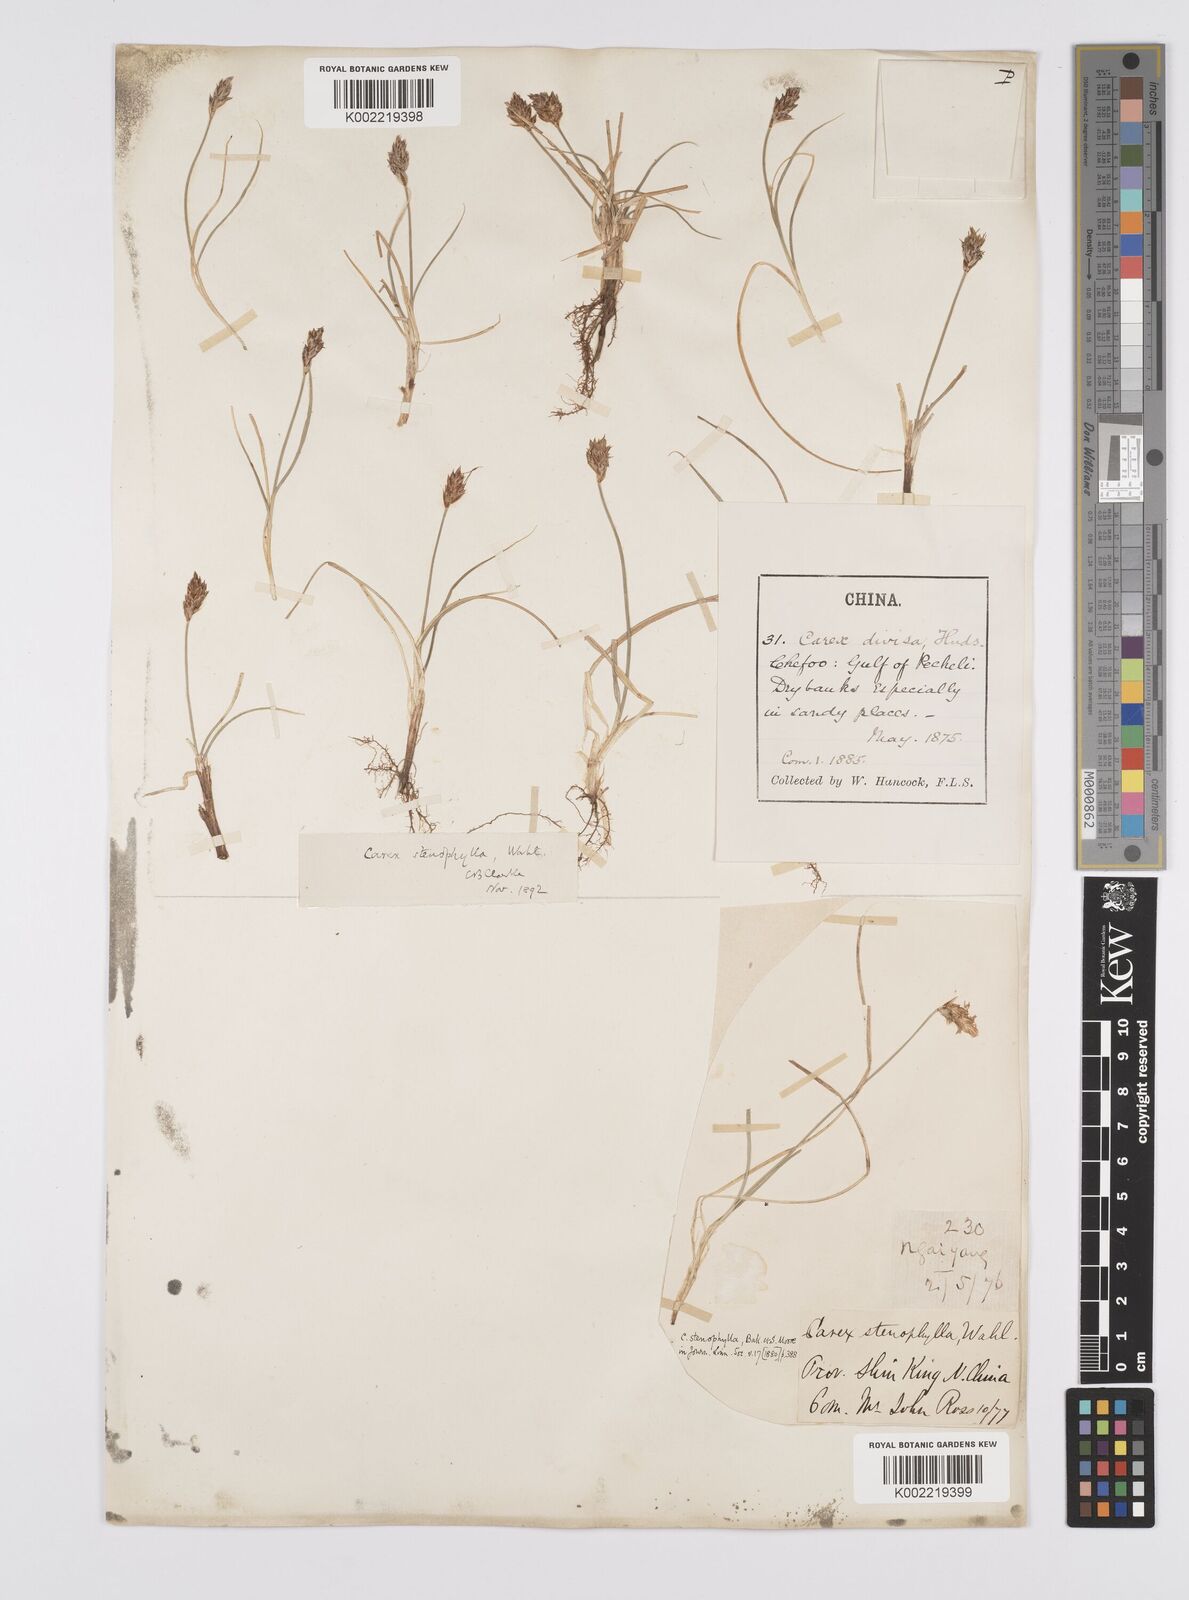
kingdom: Plantae
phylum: Tracheophyta
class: Liliopsida
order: Poales
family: Cyperaceae
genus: Carex
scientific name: Carex stenophylla
